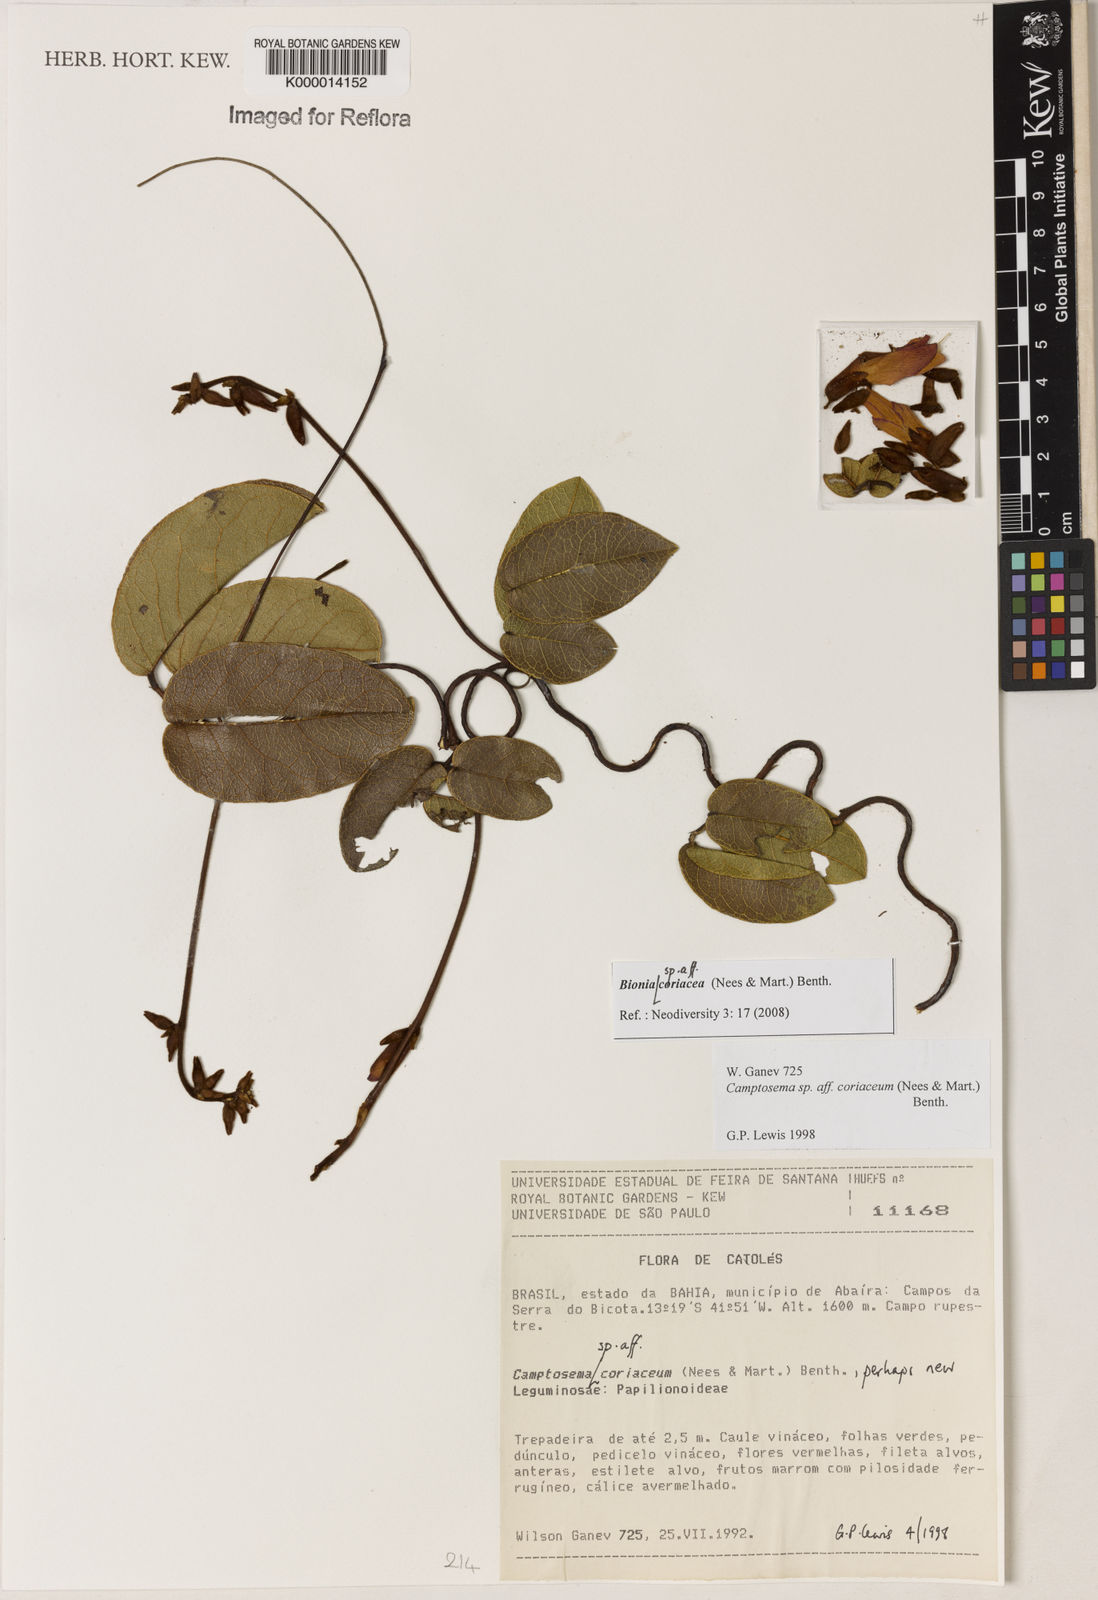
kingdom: Plantae
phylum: Tracheophyta
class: Magnoliopsida
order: Fabales
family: Fabaceae
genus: Periandra
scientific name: Periandra
